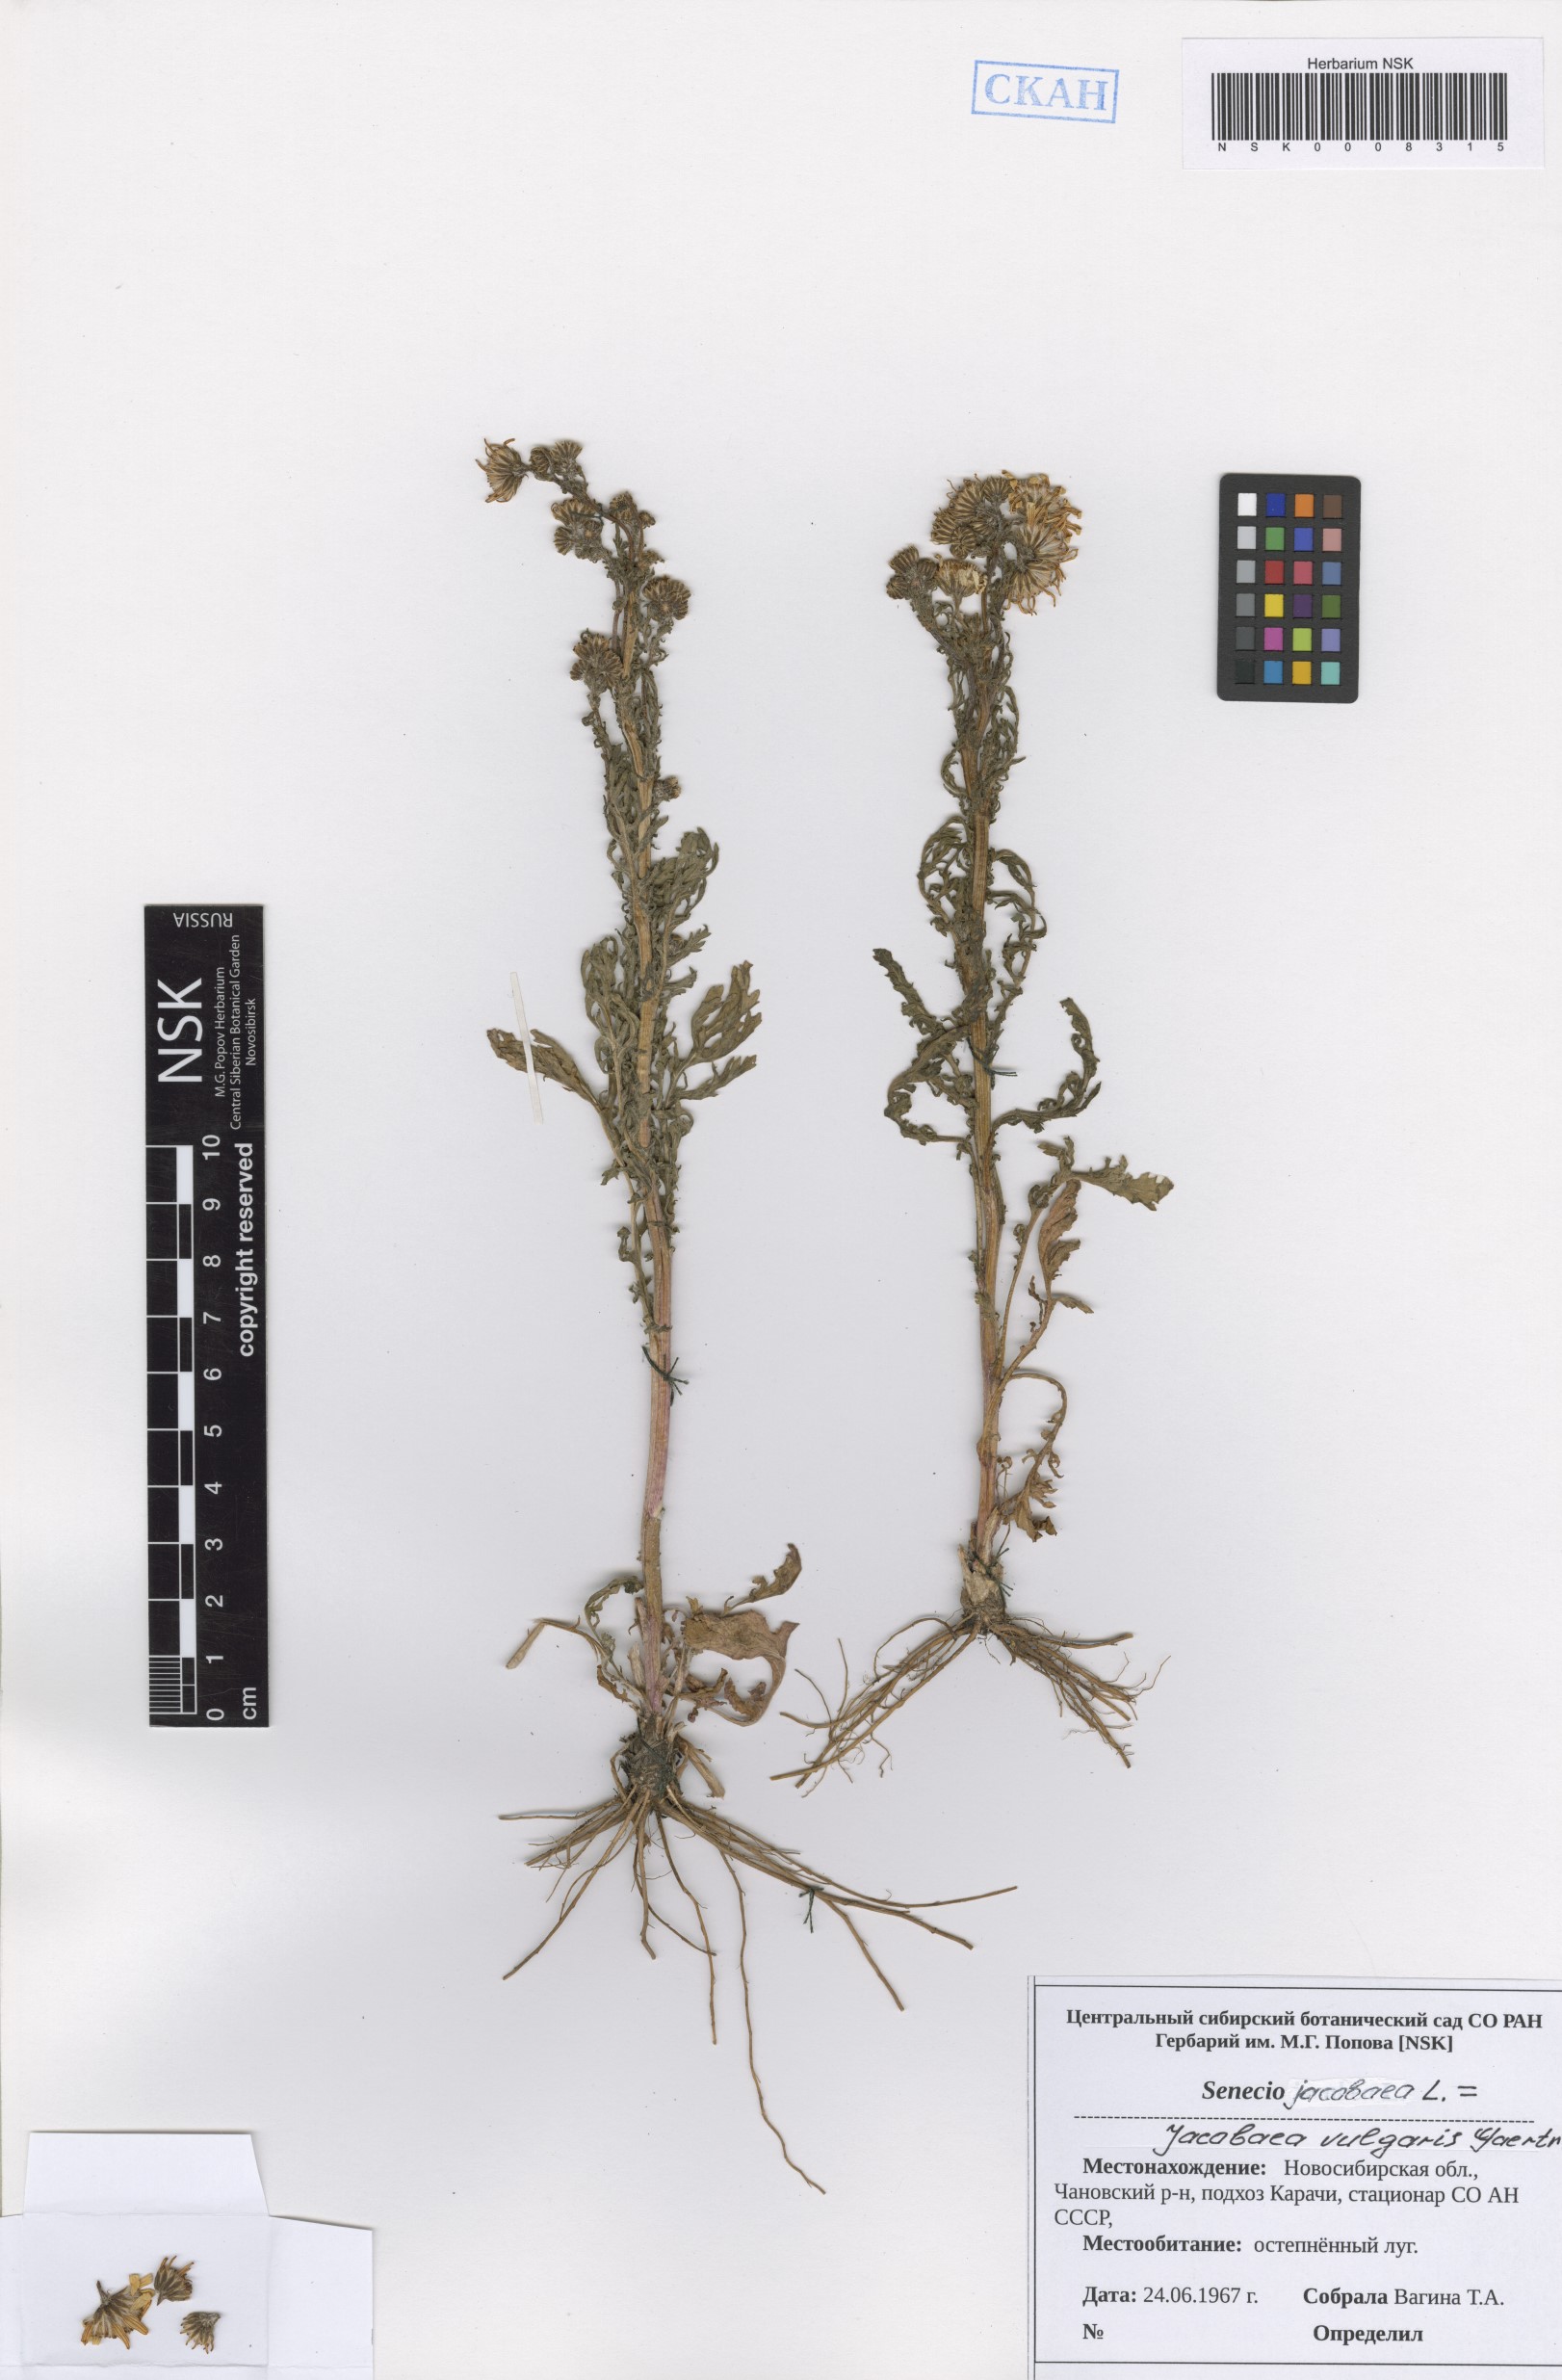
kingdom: Plantae
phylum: Tracheophyta
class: Magnoliopsida
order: Asterales
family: Asteraceae
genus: Jacobaea
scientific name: Jacobaea vulgaris
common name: Stinking willie
